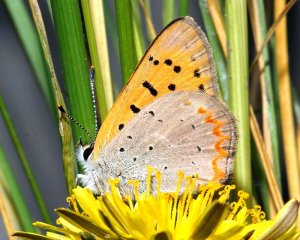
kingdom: Animalia
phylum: Arthropoda
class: Insecta
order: Lepidoptera
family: Sesiidae
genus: Sesia
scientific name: Sesia Lycaena helloides
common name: Purplish Copper
